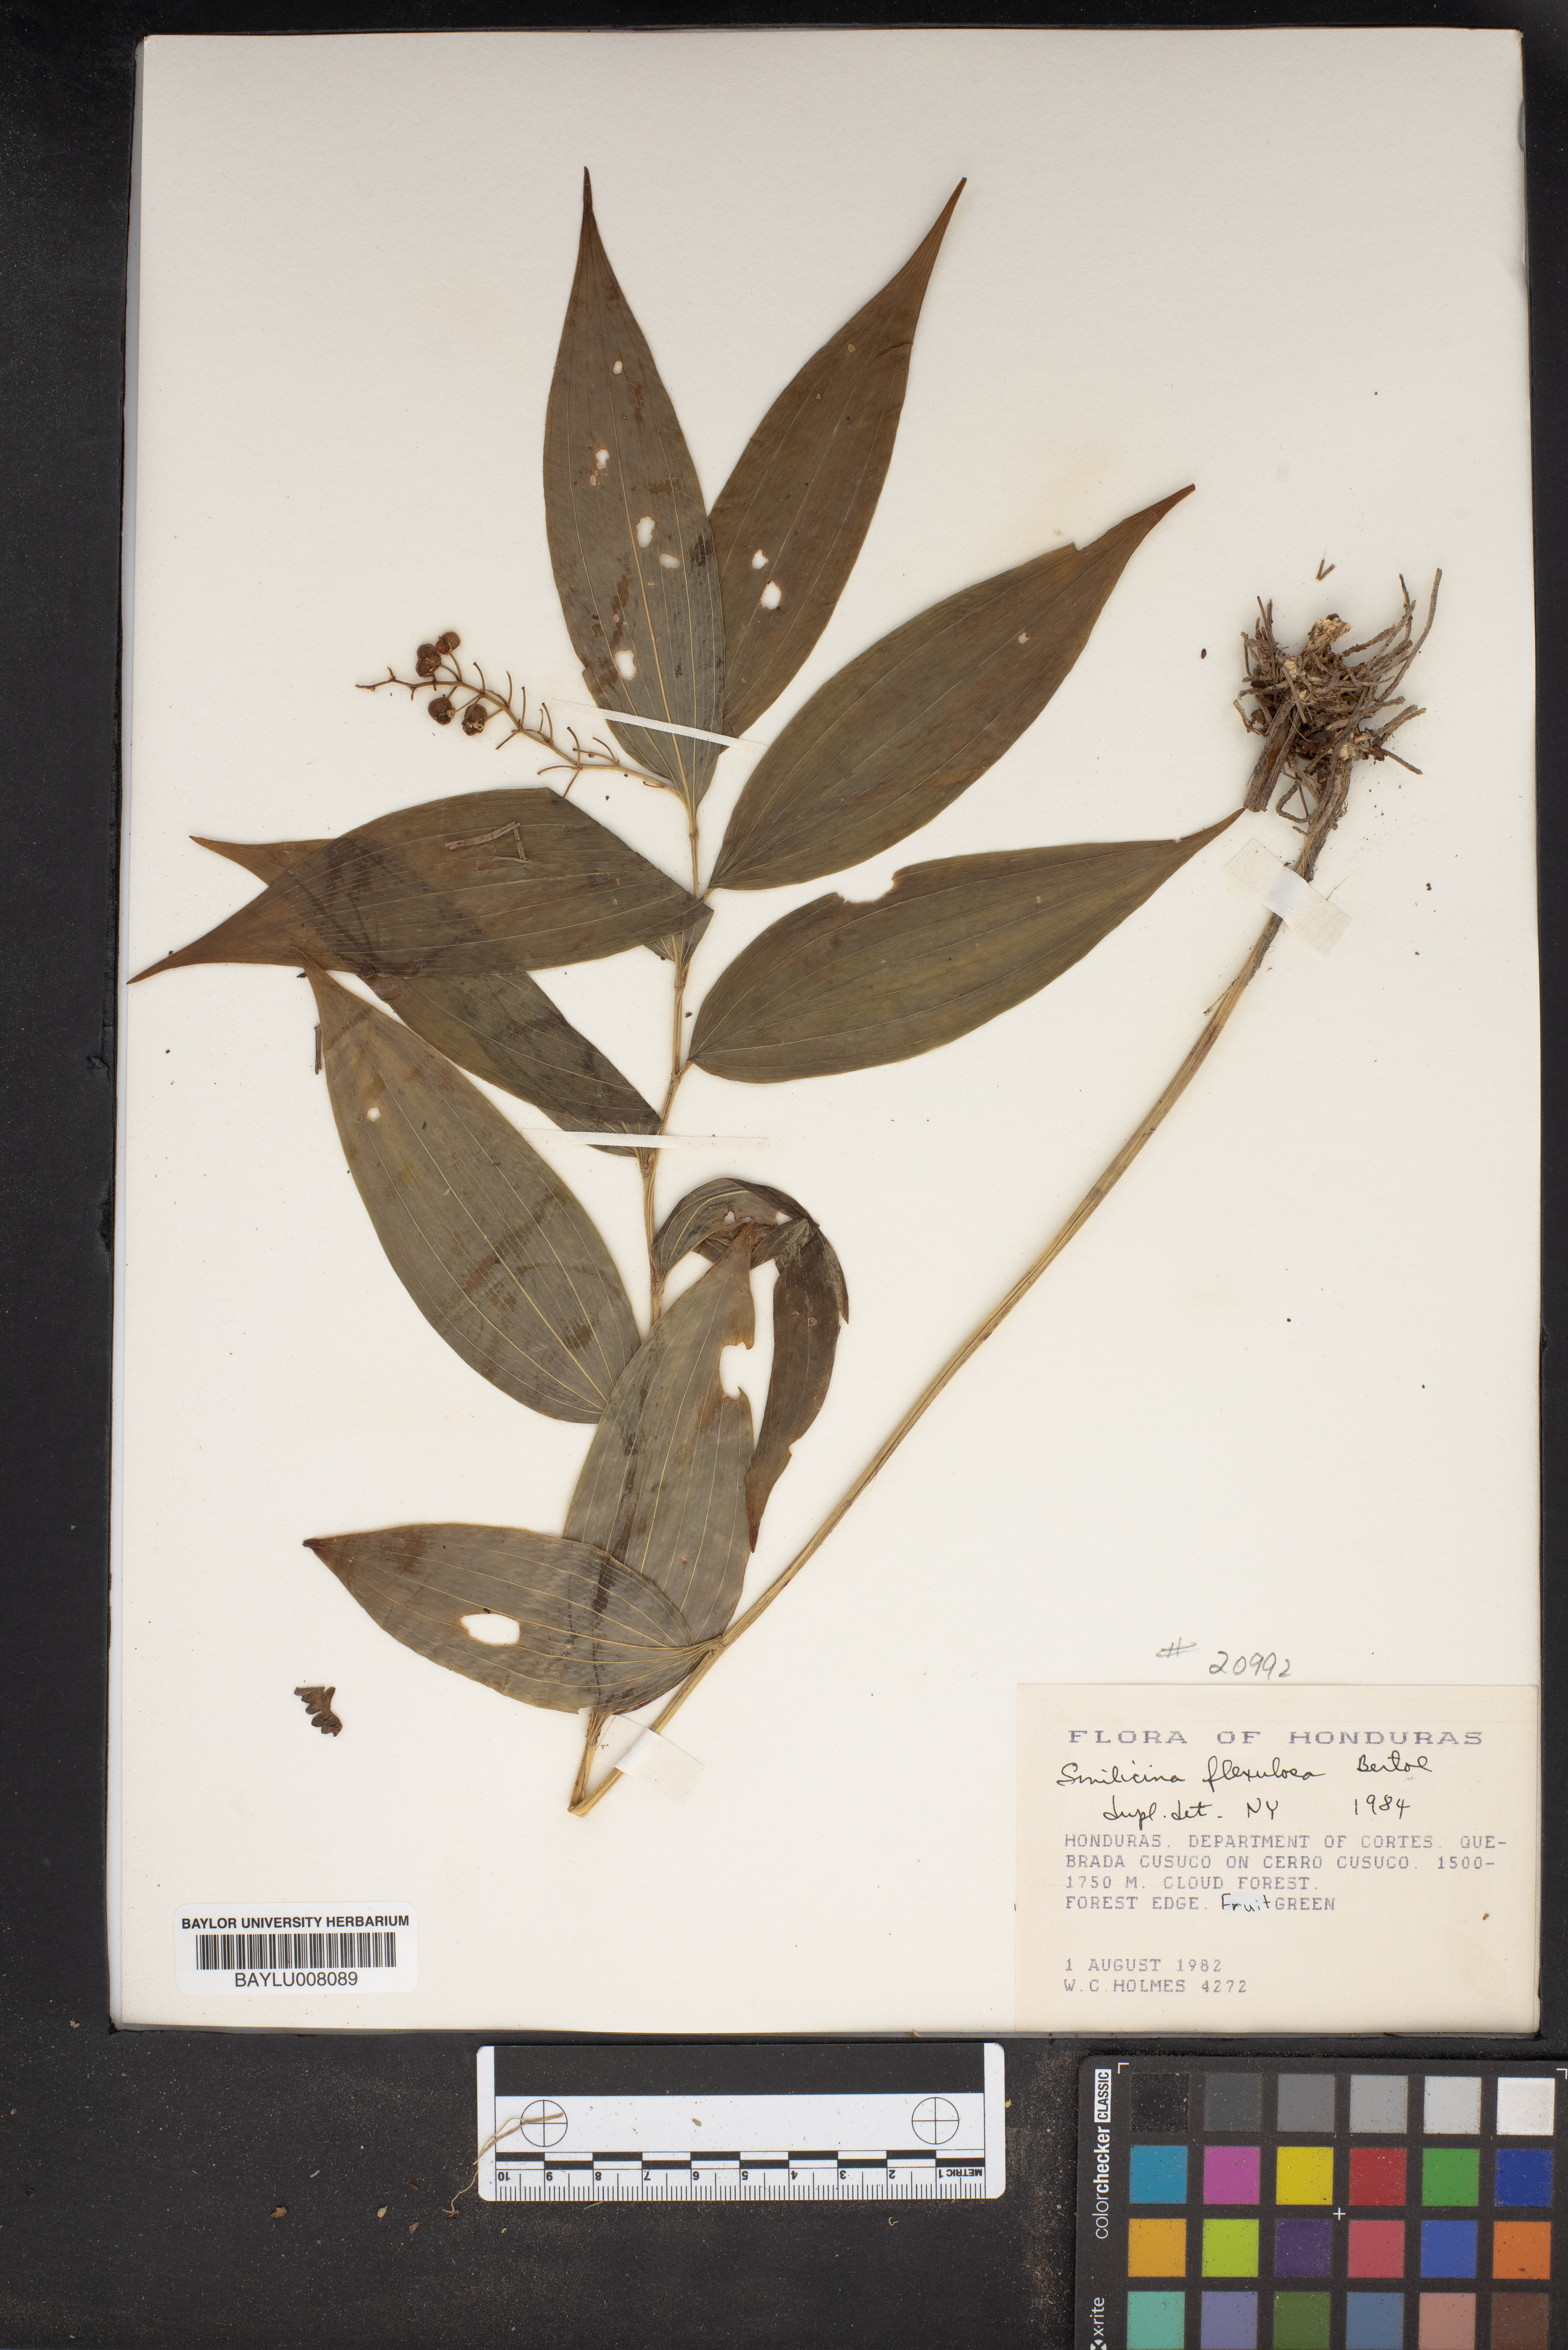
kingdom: Plantae
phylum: Tracheophyta
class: Liliopsida
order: Asparagales
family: Asparagaceae
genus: Maianthemum
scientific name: Maianthemum flexuosum
